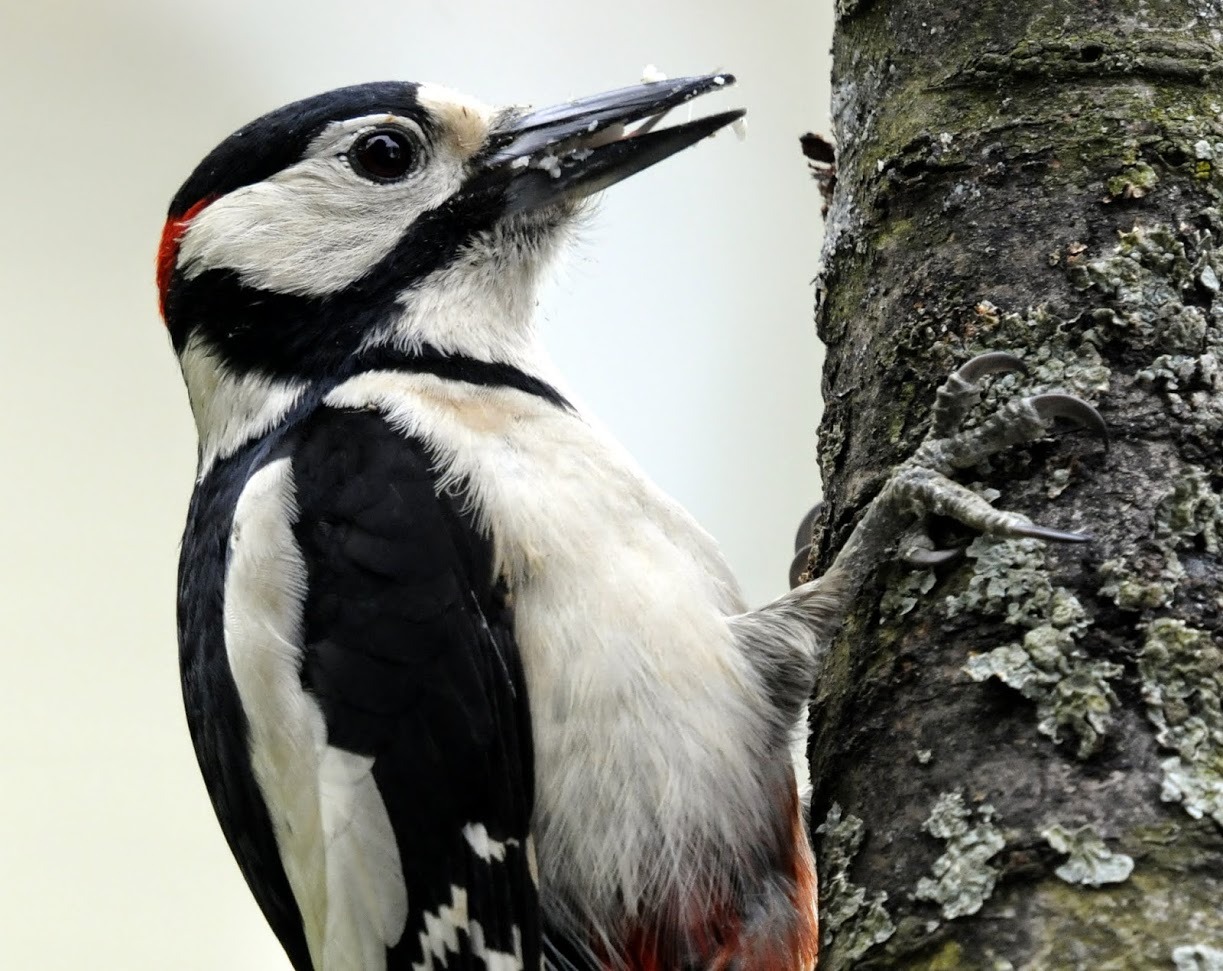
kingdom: Animalia
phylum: Chordata
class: Aves
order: Piciformes
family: Picidae
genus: Dendrocopos
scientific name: Dendrocopos major
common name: Stor flagspætte
